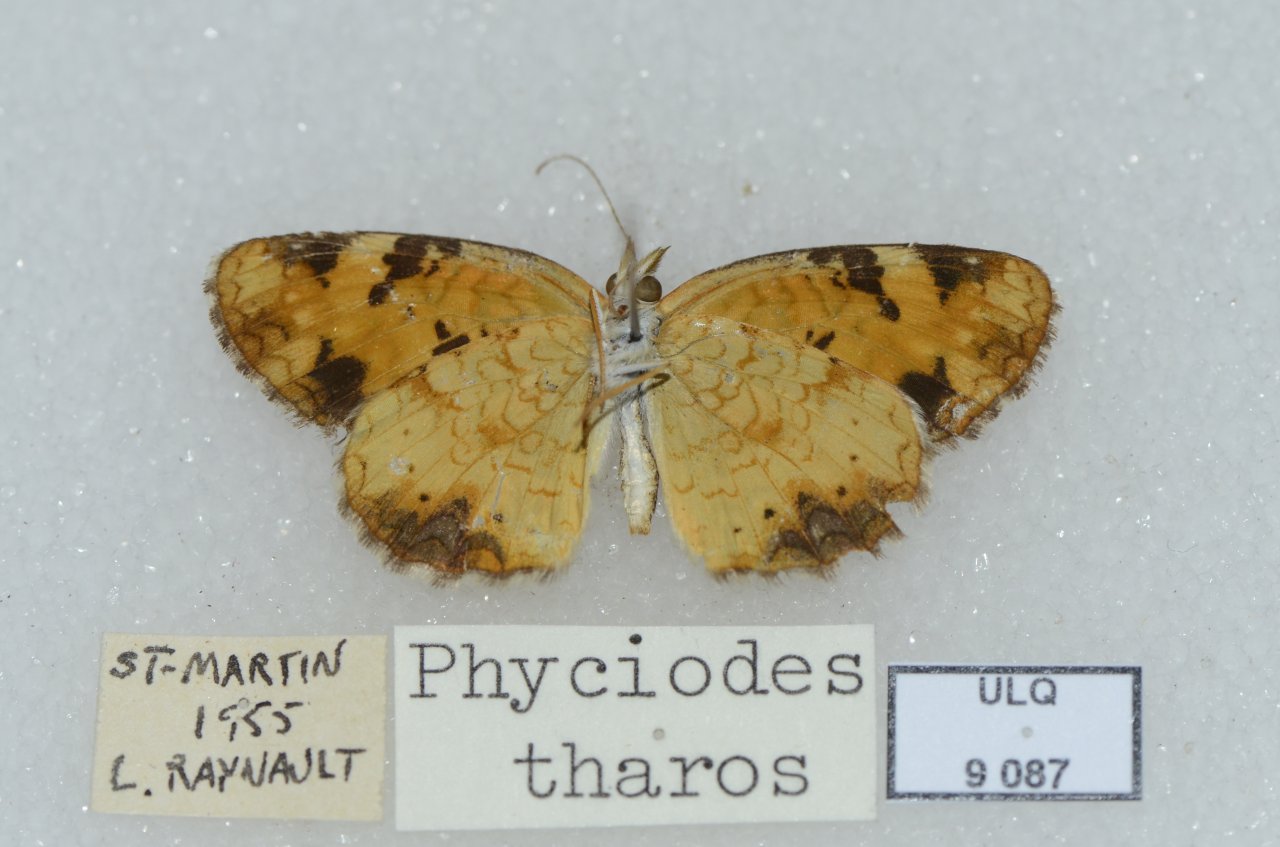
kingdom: Animalia
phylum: Arthropoda
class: Insecta
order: Lepidoptera
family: Nymphalidae
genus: Phyciodes
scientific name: Phyciodes tharos
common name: Northern Crescent
